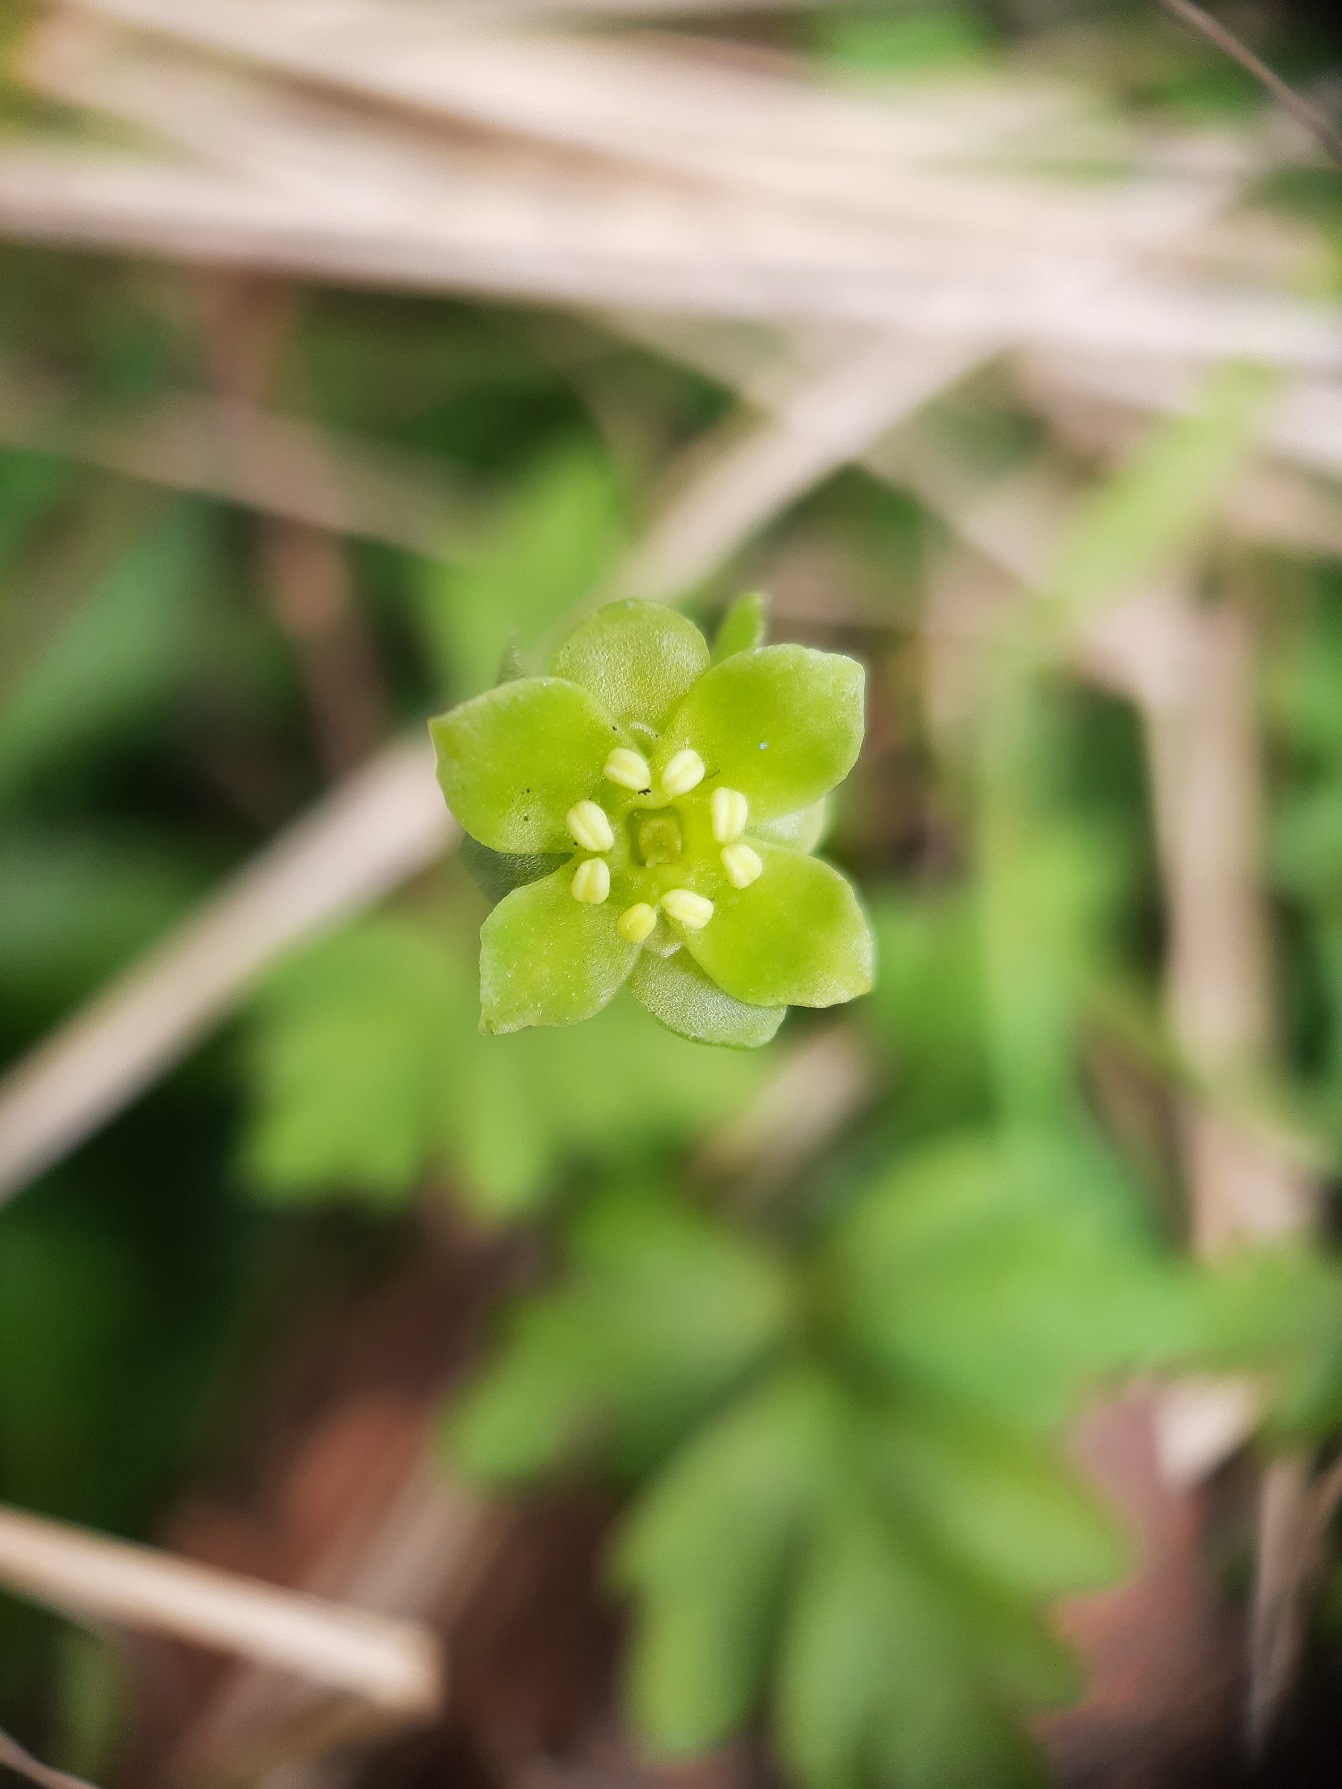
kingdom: Plantae
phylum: Tracheophyta
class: Magnoliopsida
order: Dipsacales
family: Viburnaceae
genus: Adoxa
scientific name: Adoxa moschatellina
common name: Desmerurt
